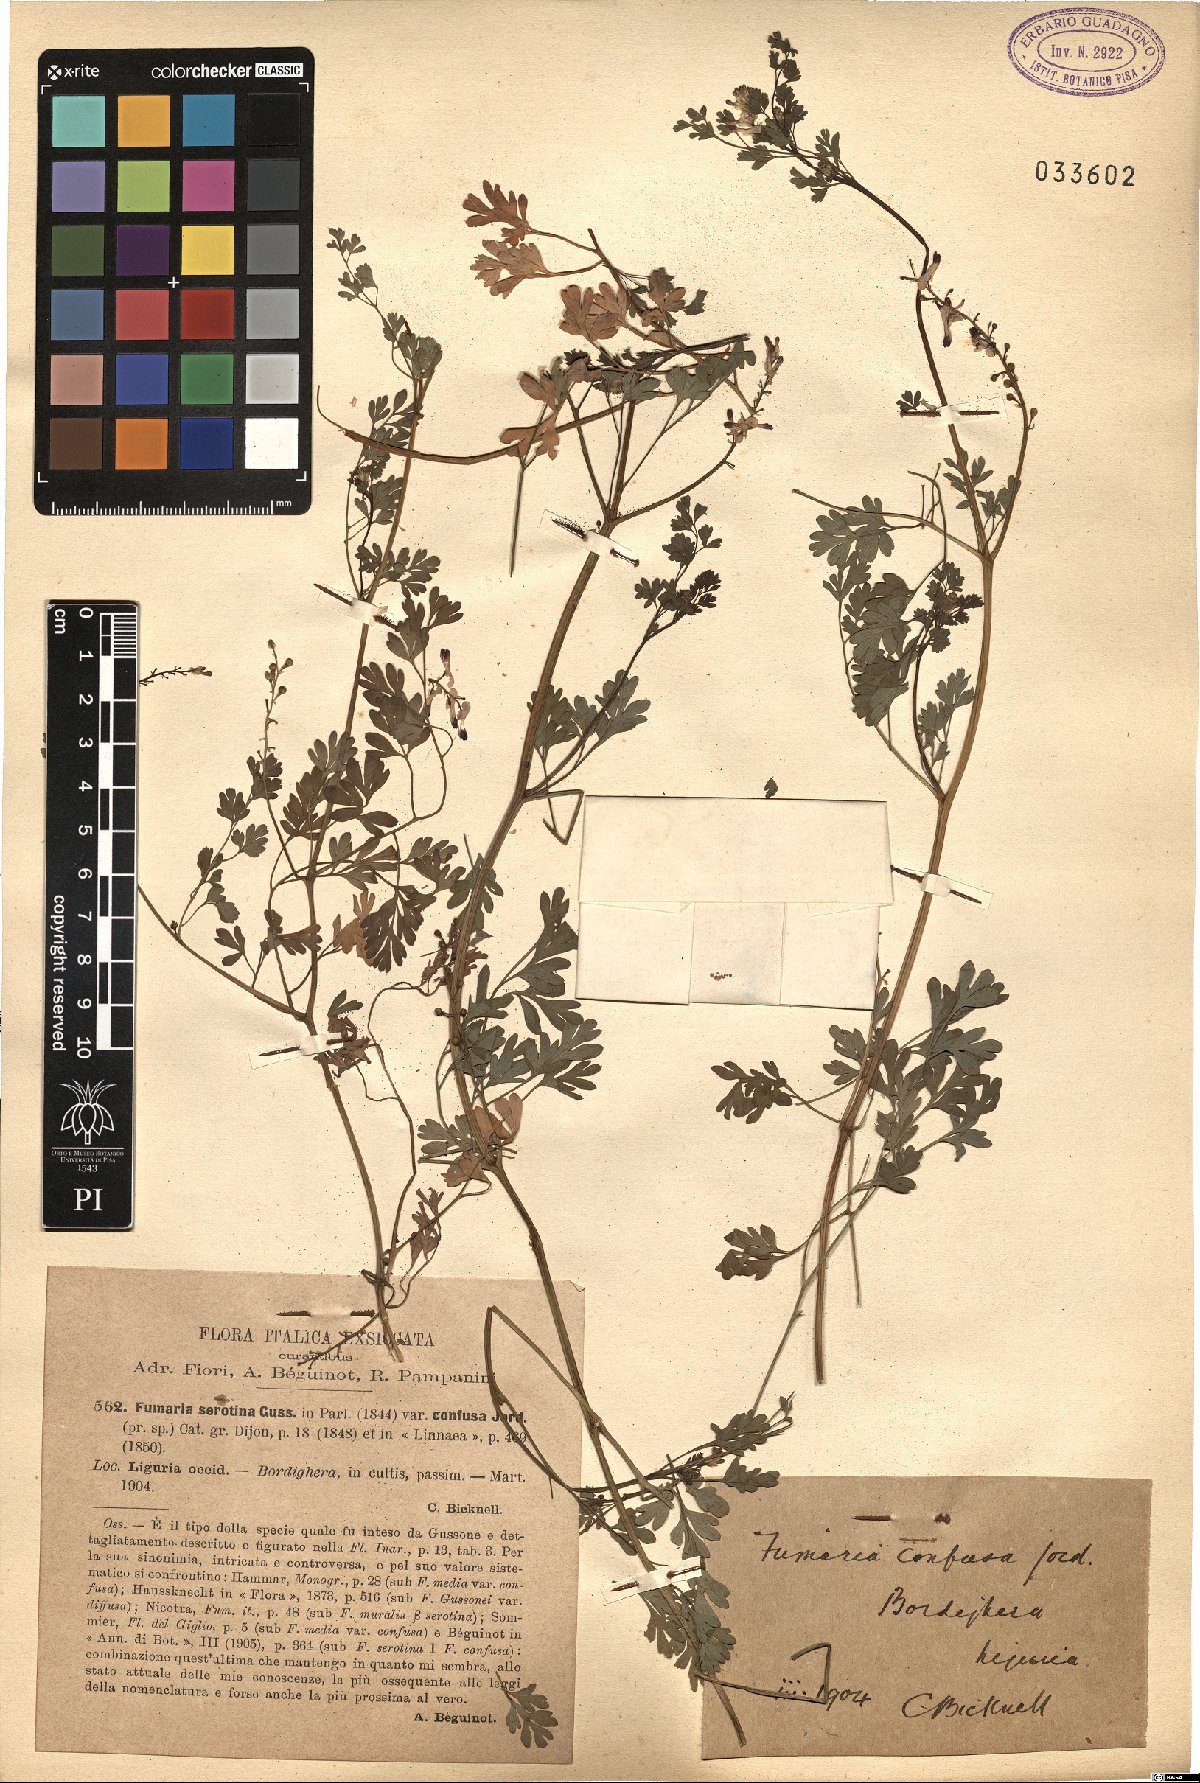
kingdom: Plantae
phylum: Tracheophyta
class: Magnoliopsida
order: Ranunculales
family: Papaveraceae
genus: Fumaria
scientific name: Fumaria bastardii
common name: Tall ramping-fumitory
